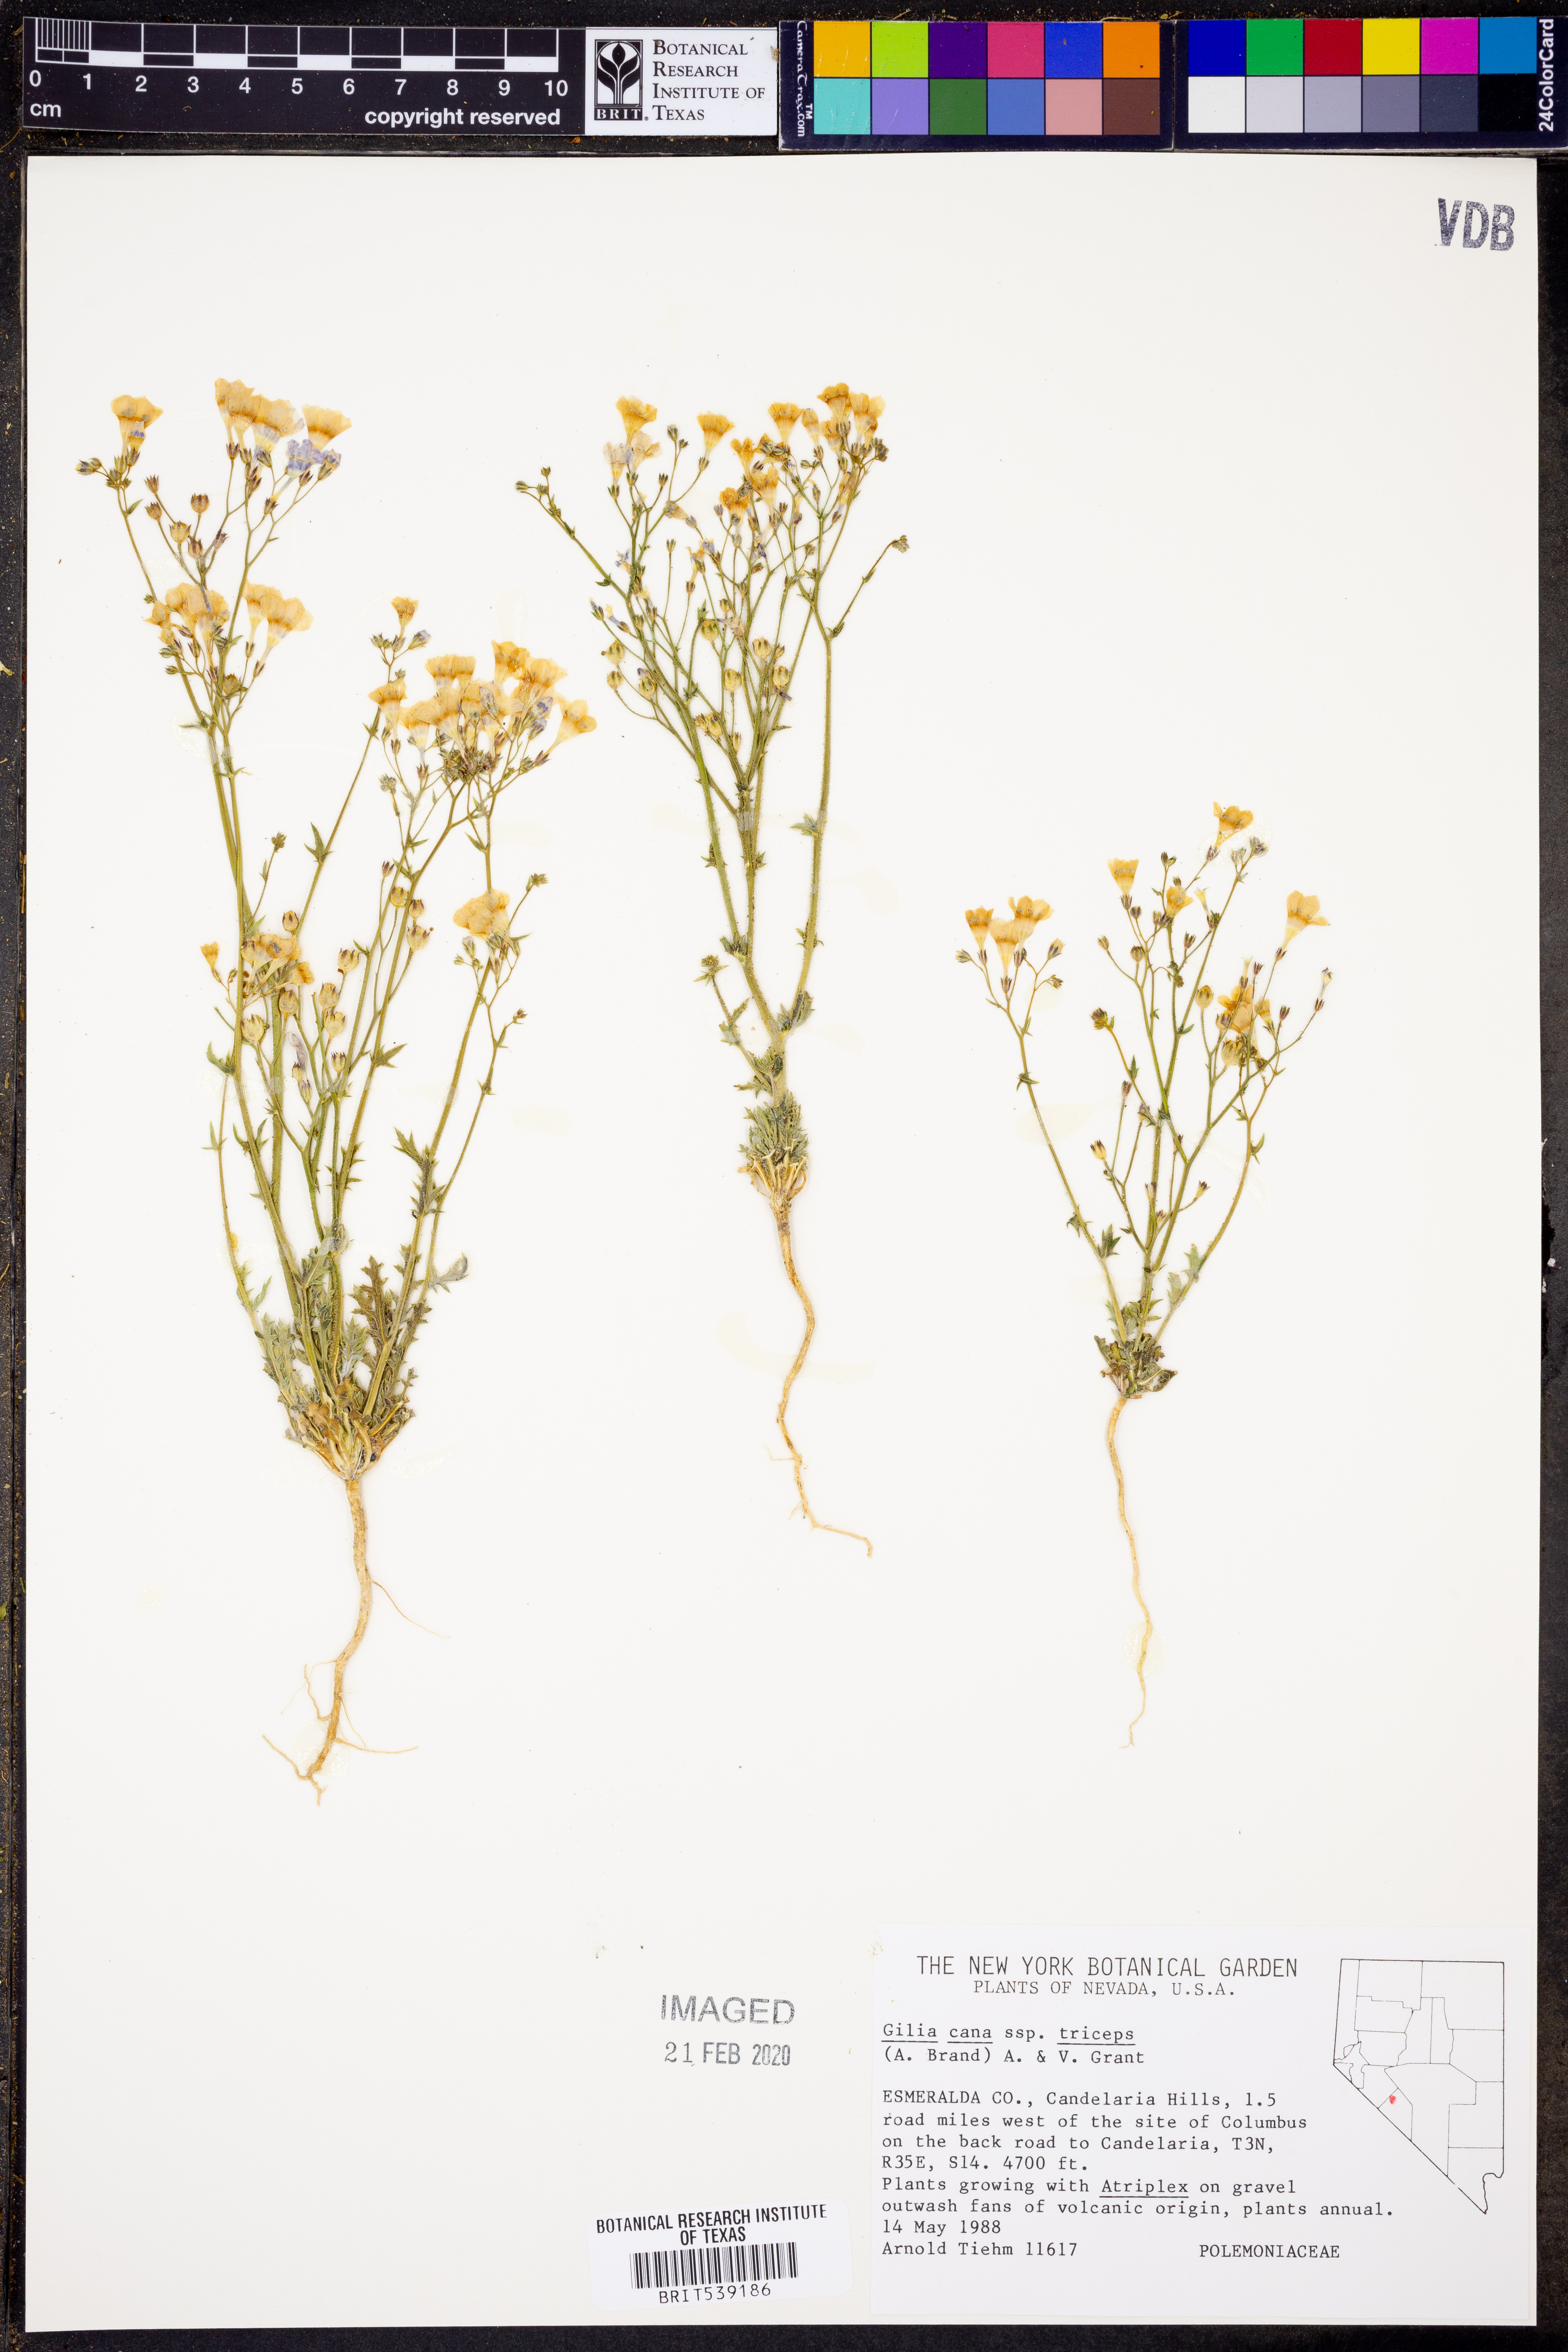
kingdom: Plantae
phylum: Tracheophyta
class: Magnoliopsida
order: Ericales
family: Polemoniaceae
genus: Gilia
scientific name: Gilia cana
